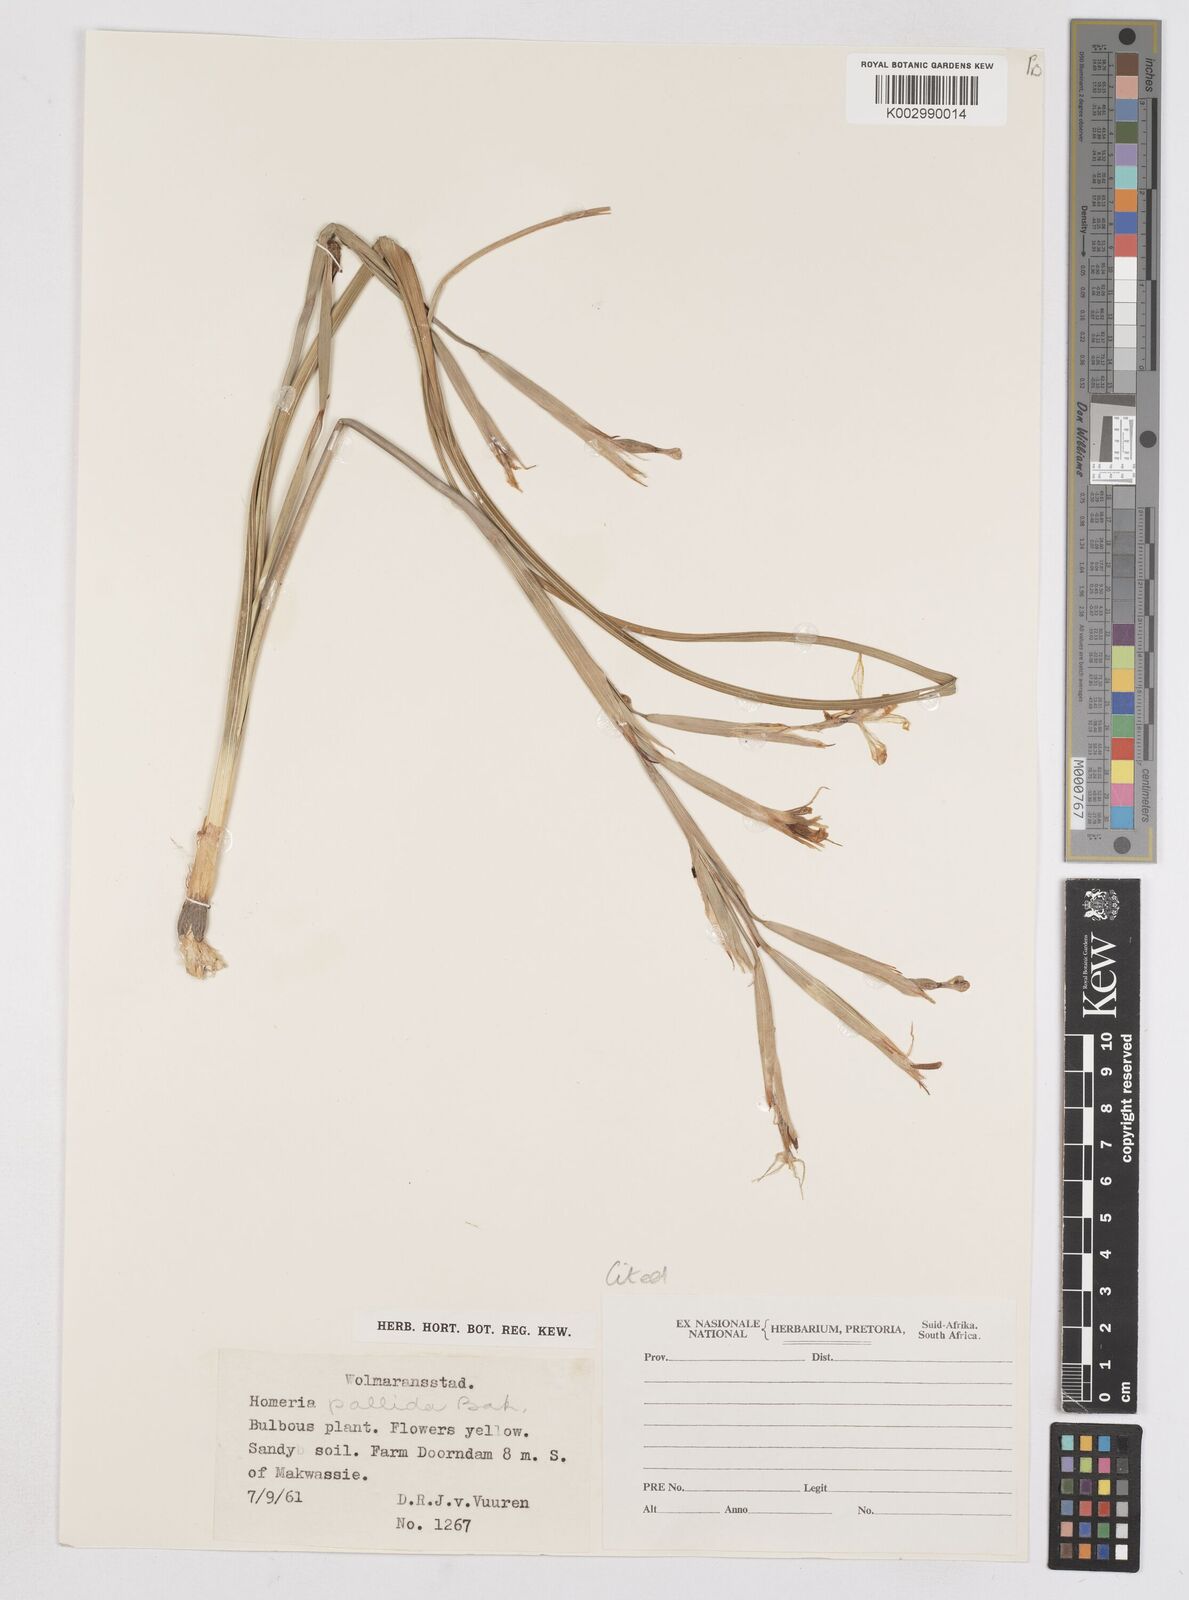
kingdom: Plantae
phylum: Tracheophyta
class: Liliopsida
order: Asparagales
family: Iridaceae
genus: Moraea
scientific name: Moraea pallida
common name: Yellow tulp
